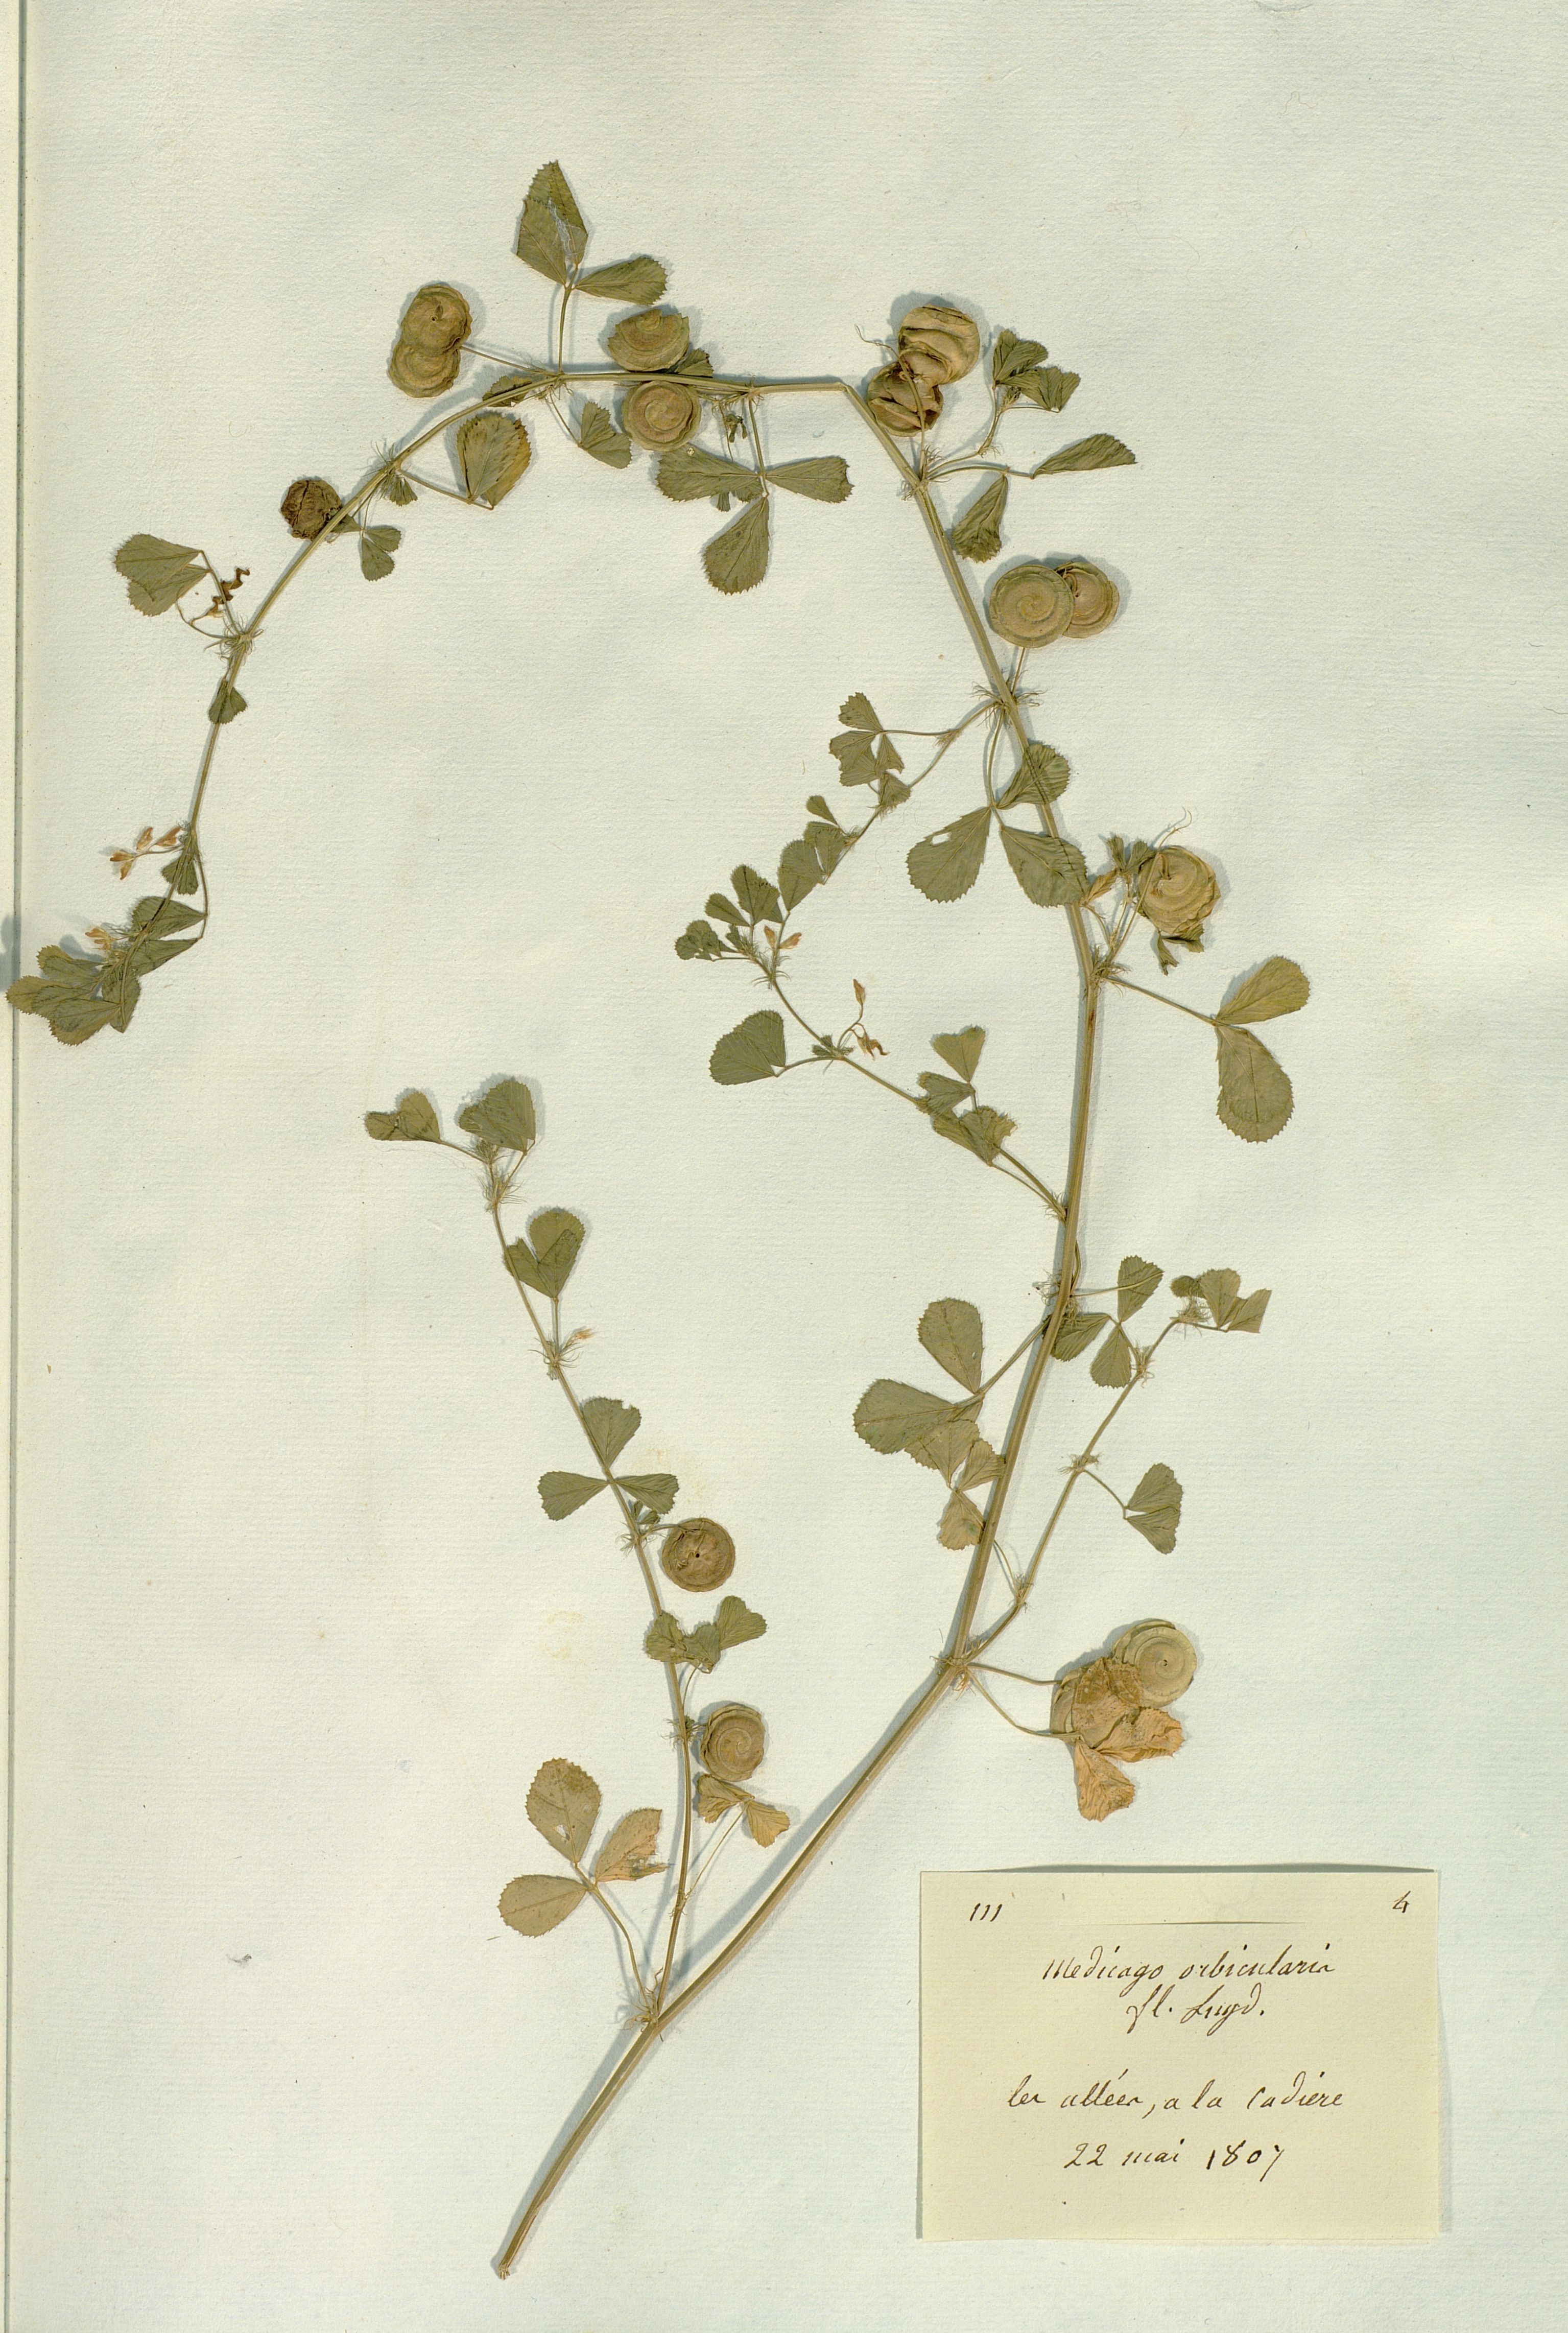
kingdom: Plantae
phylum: Tracheophyta
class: Magnoliopsida
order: Fabales
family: Fabaceae
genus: Medicago
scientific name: Medicago orbicularis
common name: Button medick
